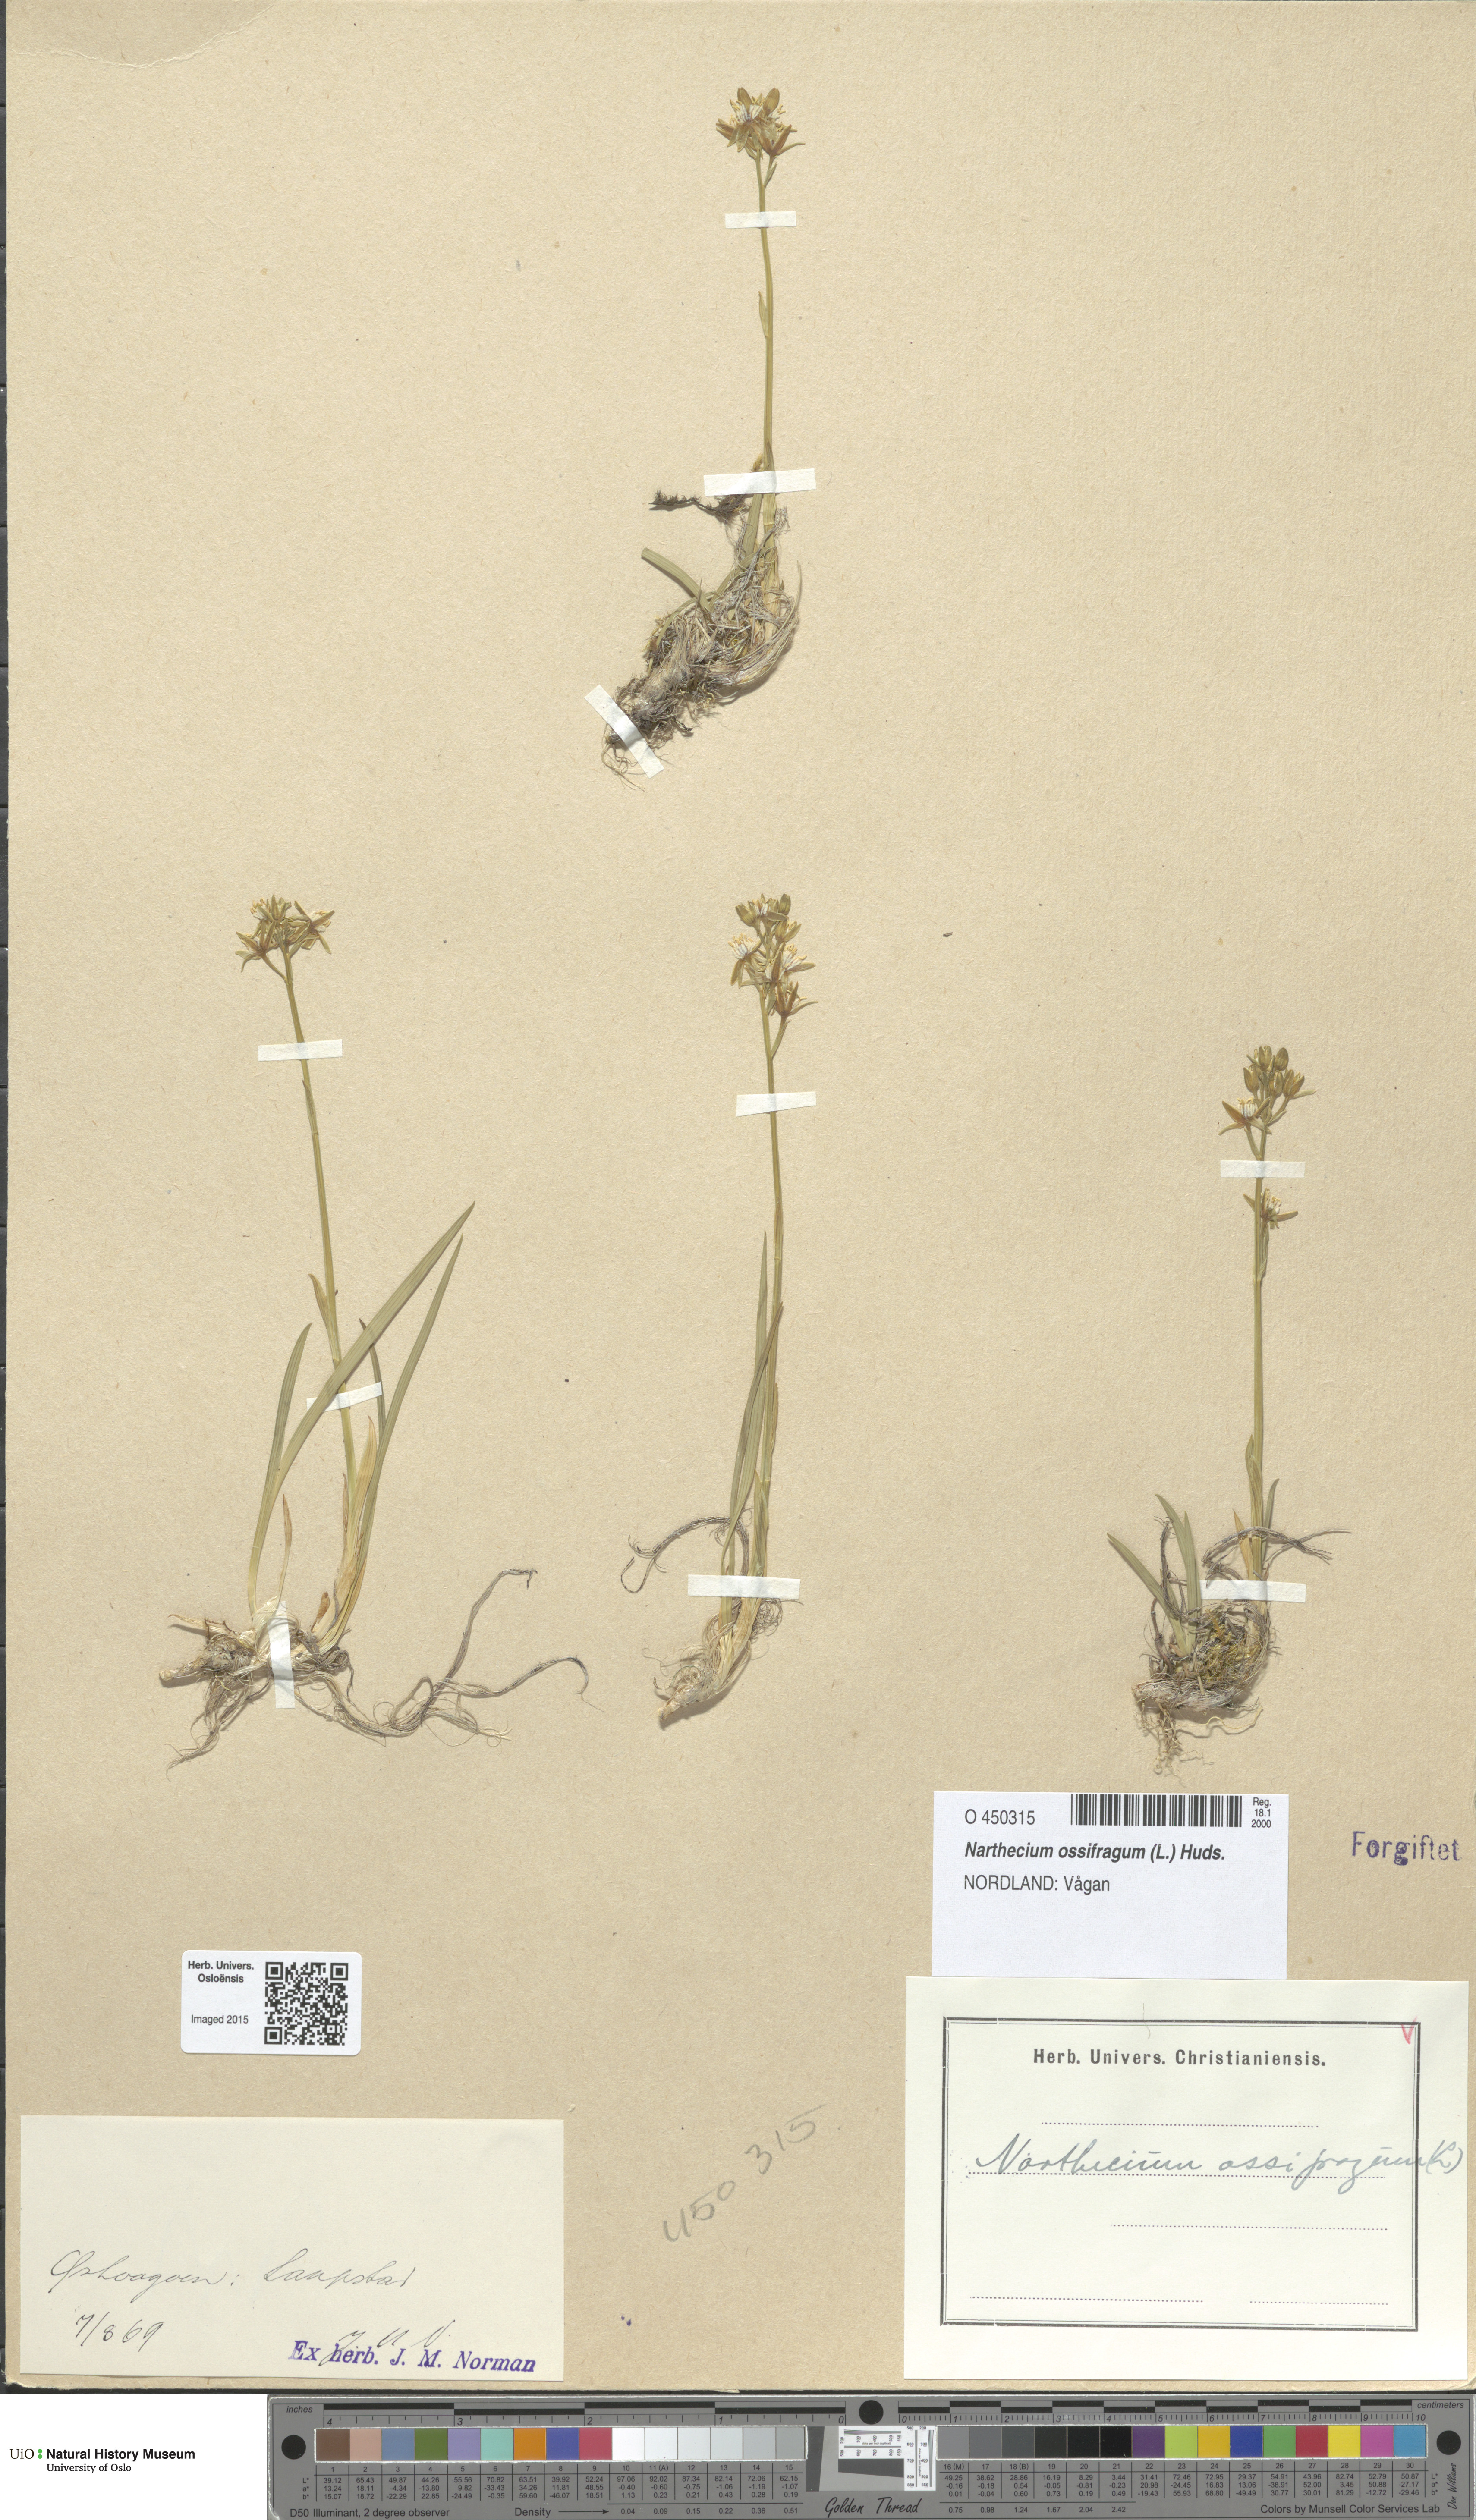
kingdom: Plantae
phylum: Tracheophyta
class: Liliopsida
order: Dioscoreales
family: Nartheciaceae
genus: Narthecium
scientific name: Narthecium ossifragum
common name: Bog asphodel
